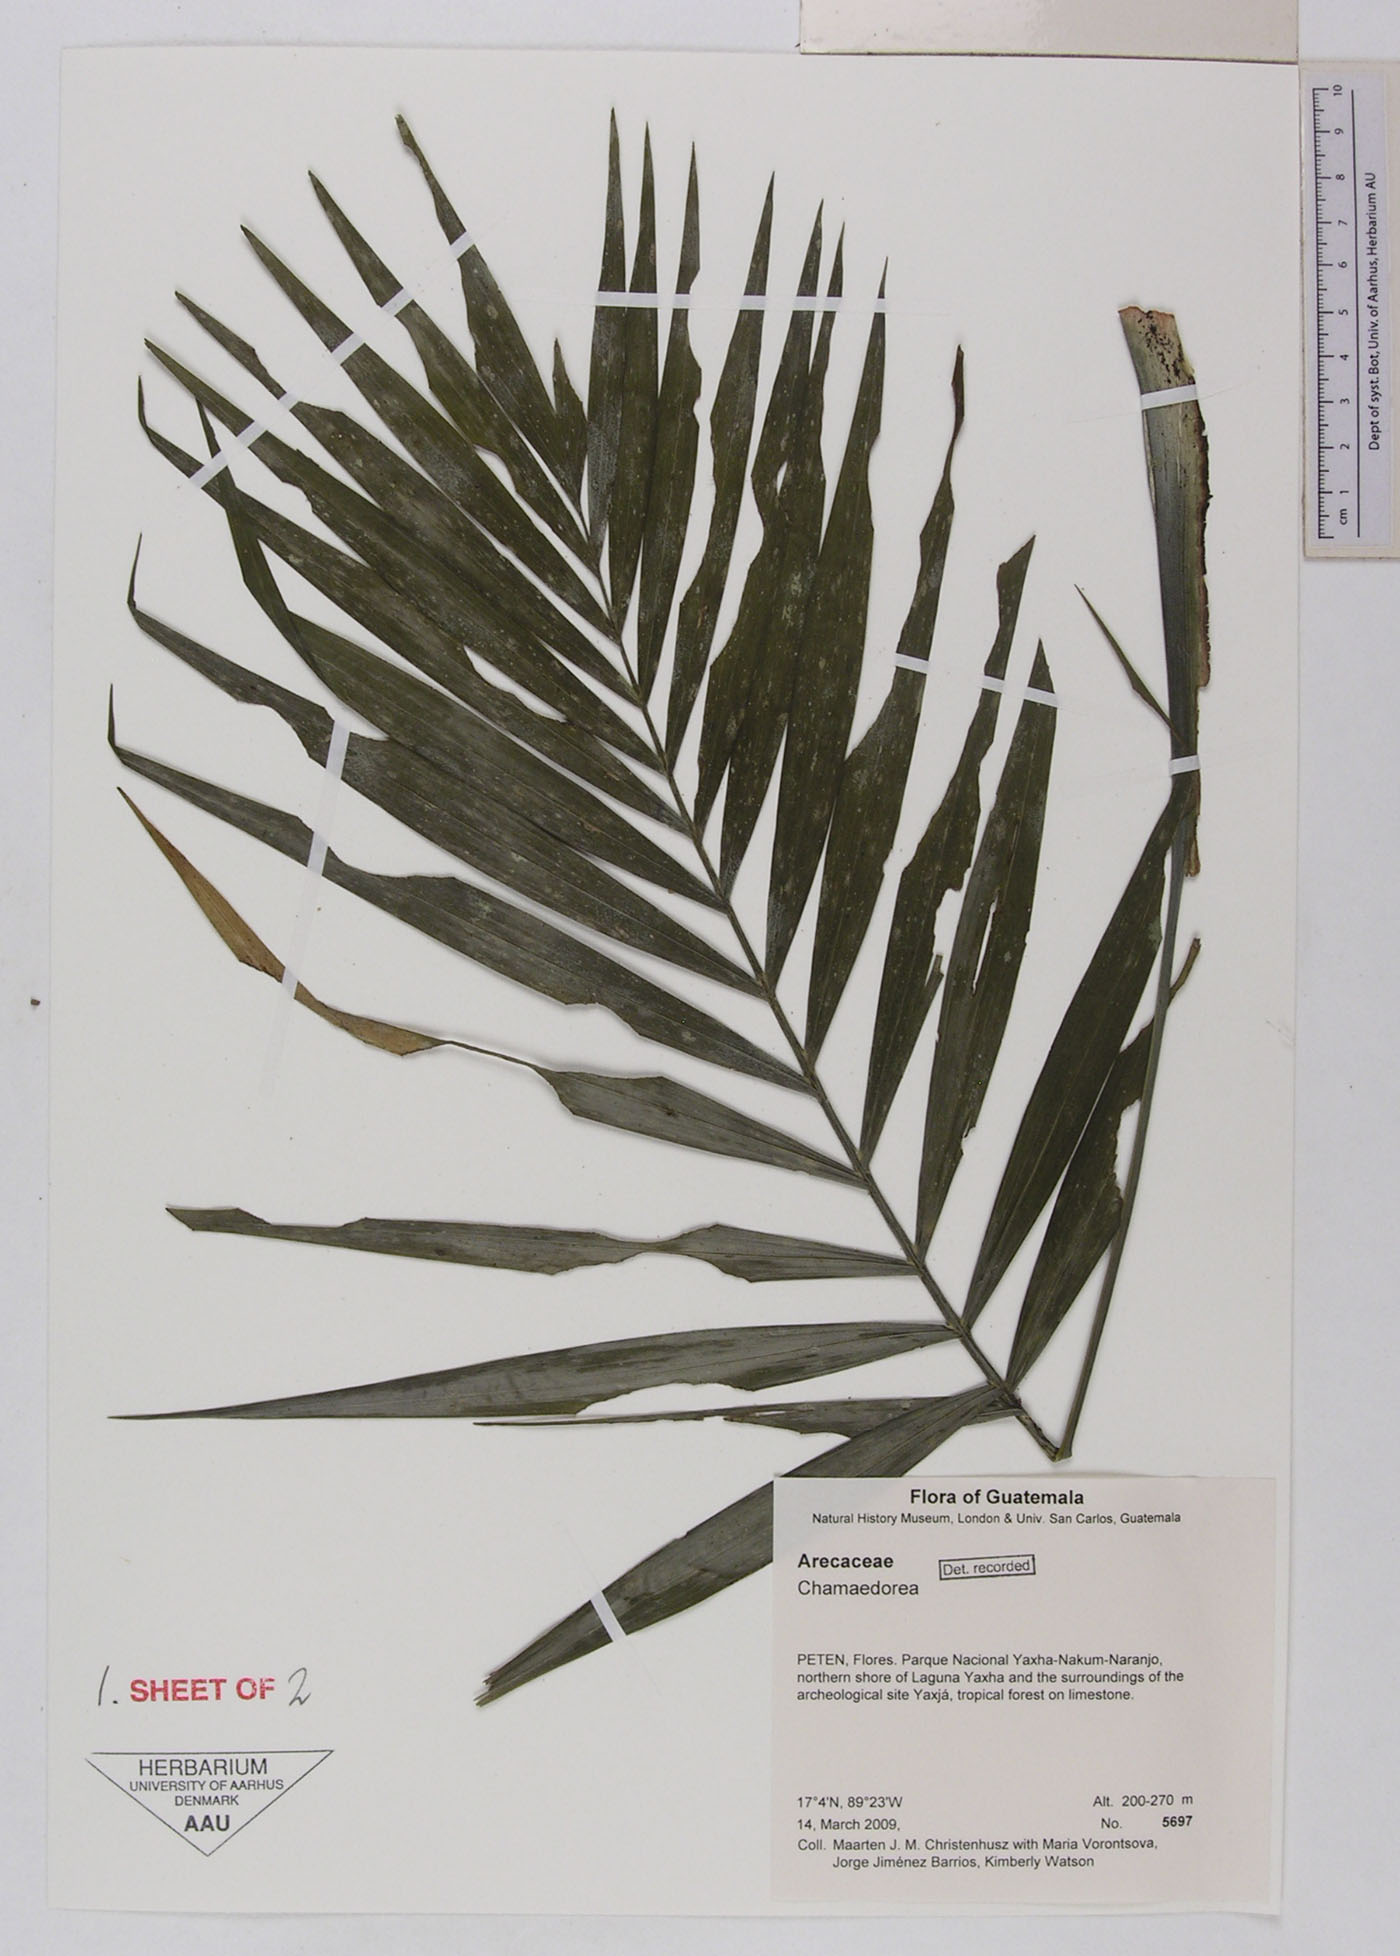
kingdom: Plantae
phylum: Tracheophyta
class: Liliopsida
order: Arecales
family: Arecaceae
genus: Chamaedorea
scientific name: Chamaedorea
